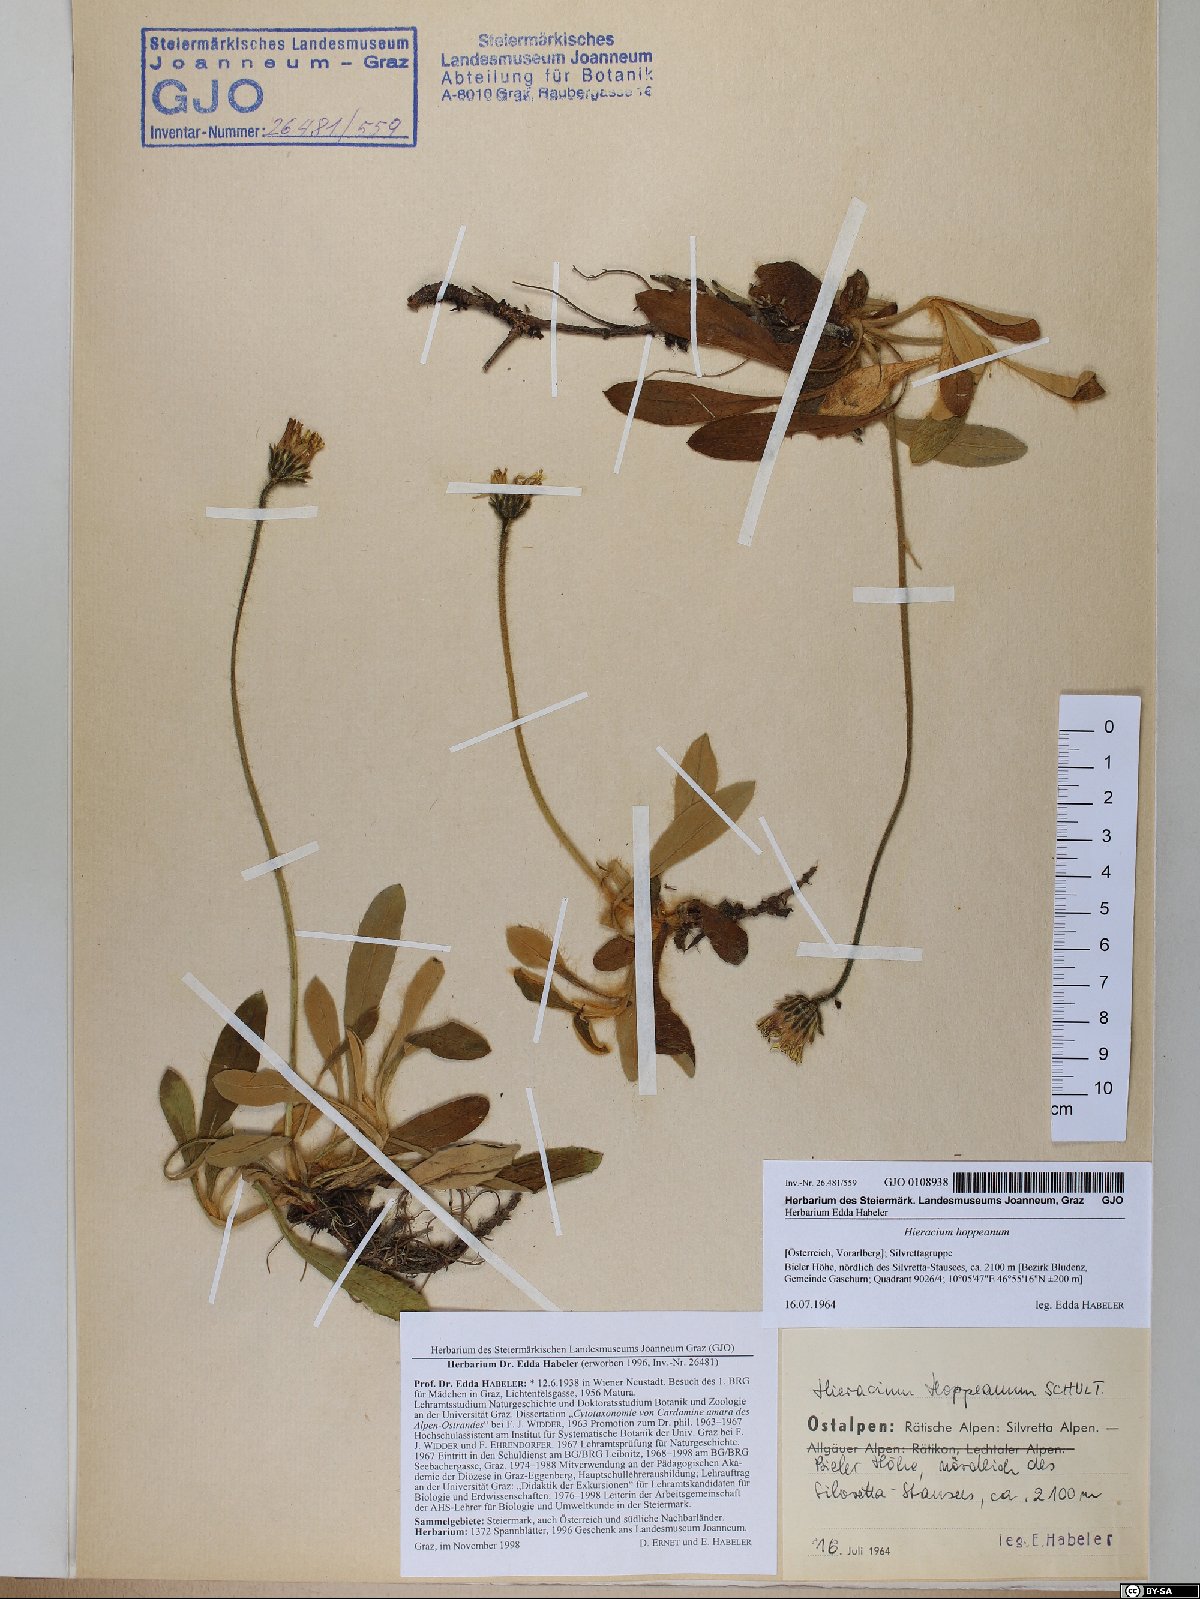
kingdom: Plantae
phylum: Tracheophyta
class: Magnoliopsida
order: Asterales
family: Asteraceae
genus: Pilosella
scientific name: Pilosella hoppeana
